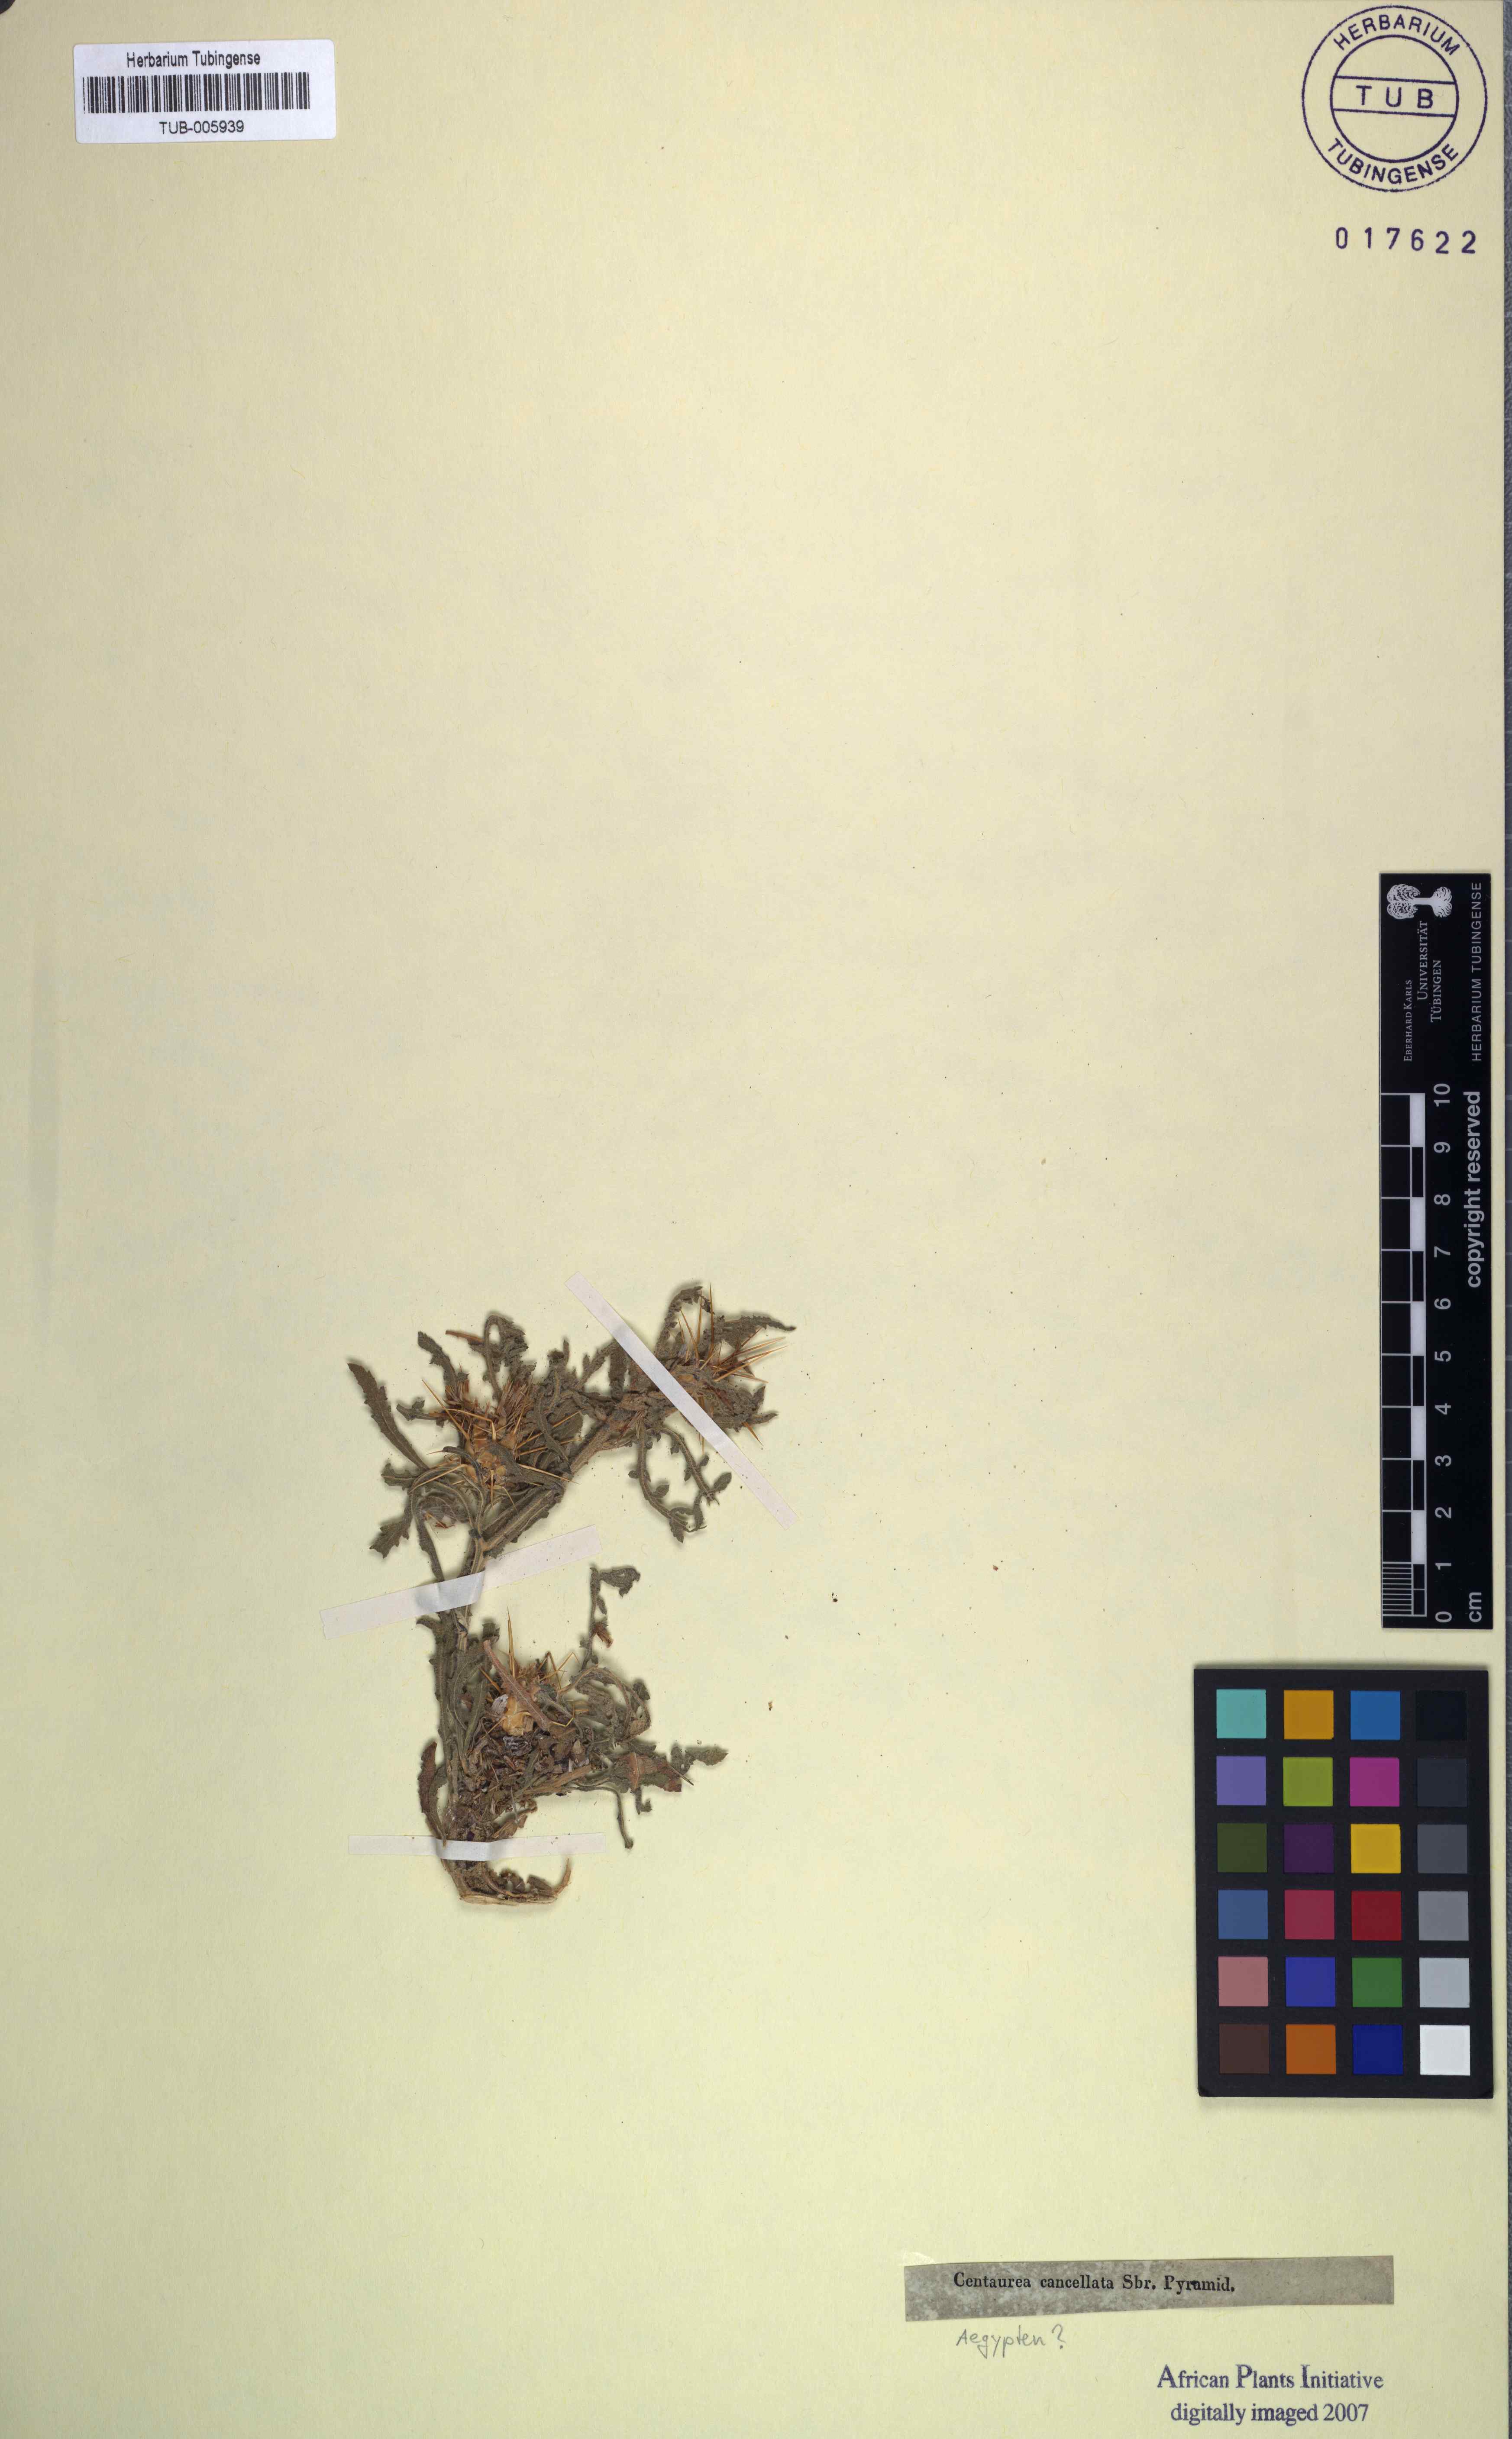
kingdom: Plantae
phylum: Tracheophyta
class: Magnoliopsida
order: Asterales
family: Asteraceae
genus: Centaurea
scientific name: Centaurea aegyptiaca
